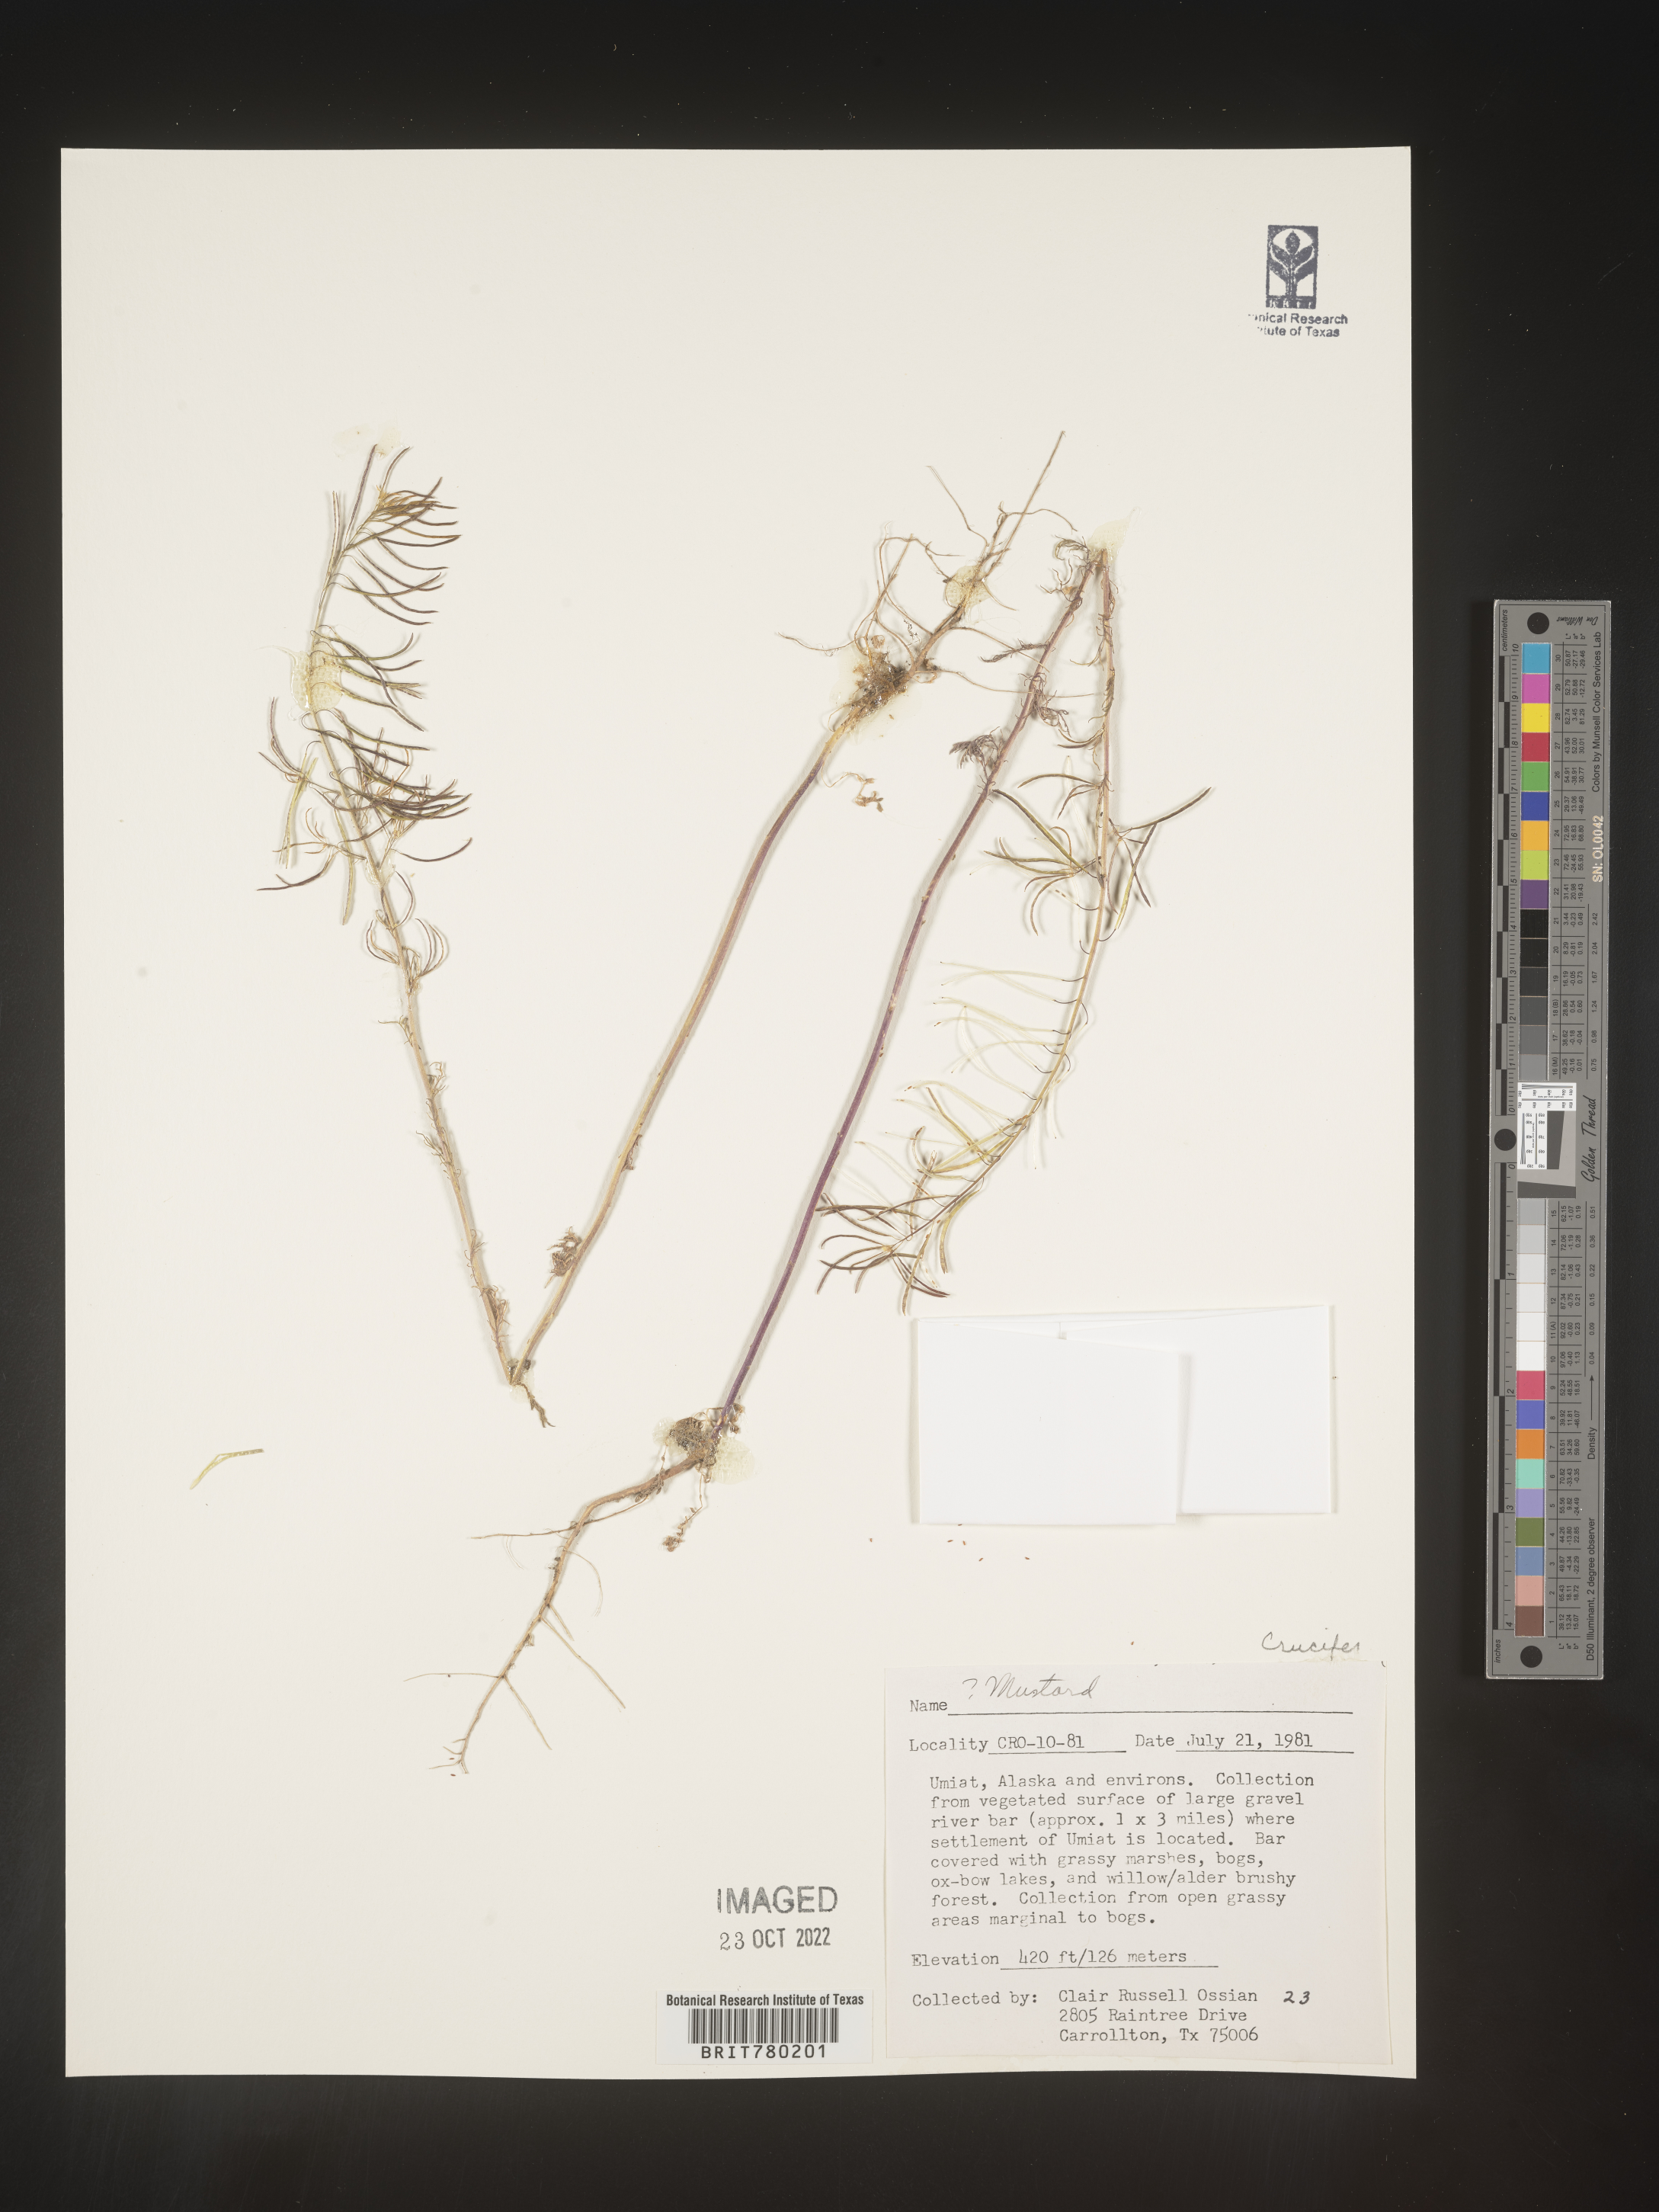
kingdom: Plantae
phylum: Tracheophyta
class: Magnoliopsida
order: Brassicales
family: Brassicaceae
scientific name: Brassicaceae
